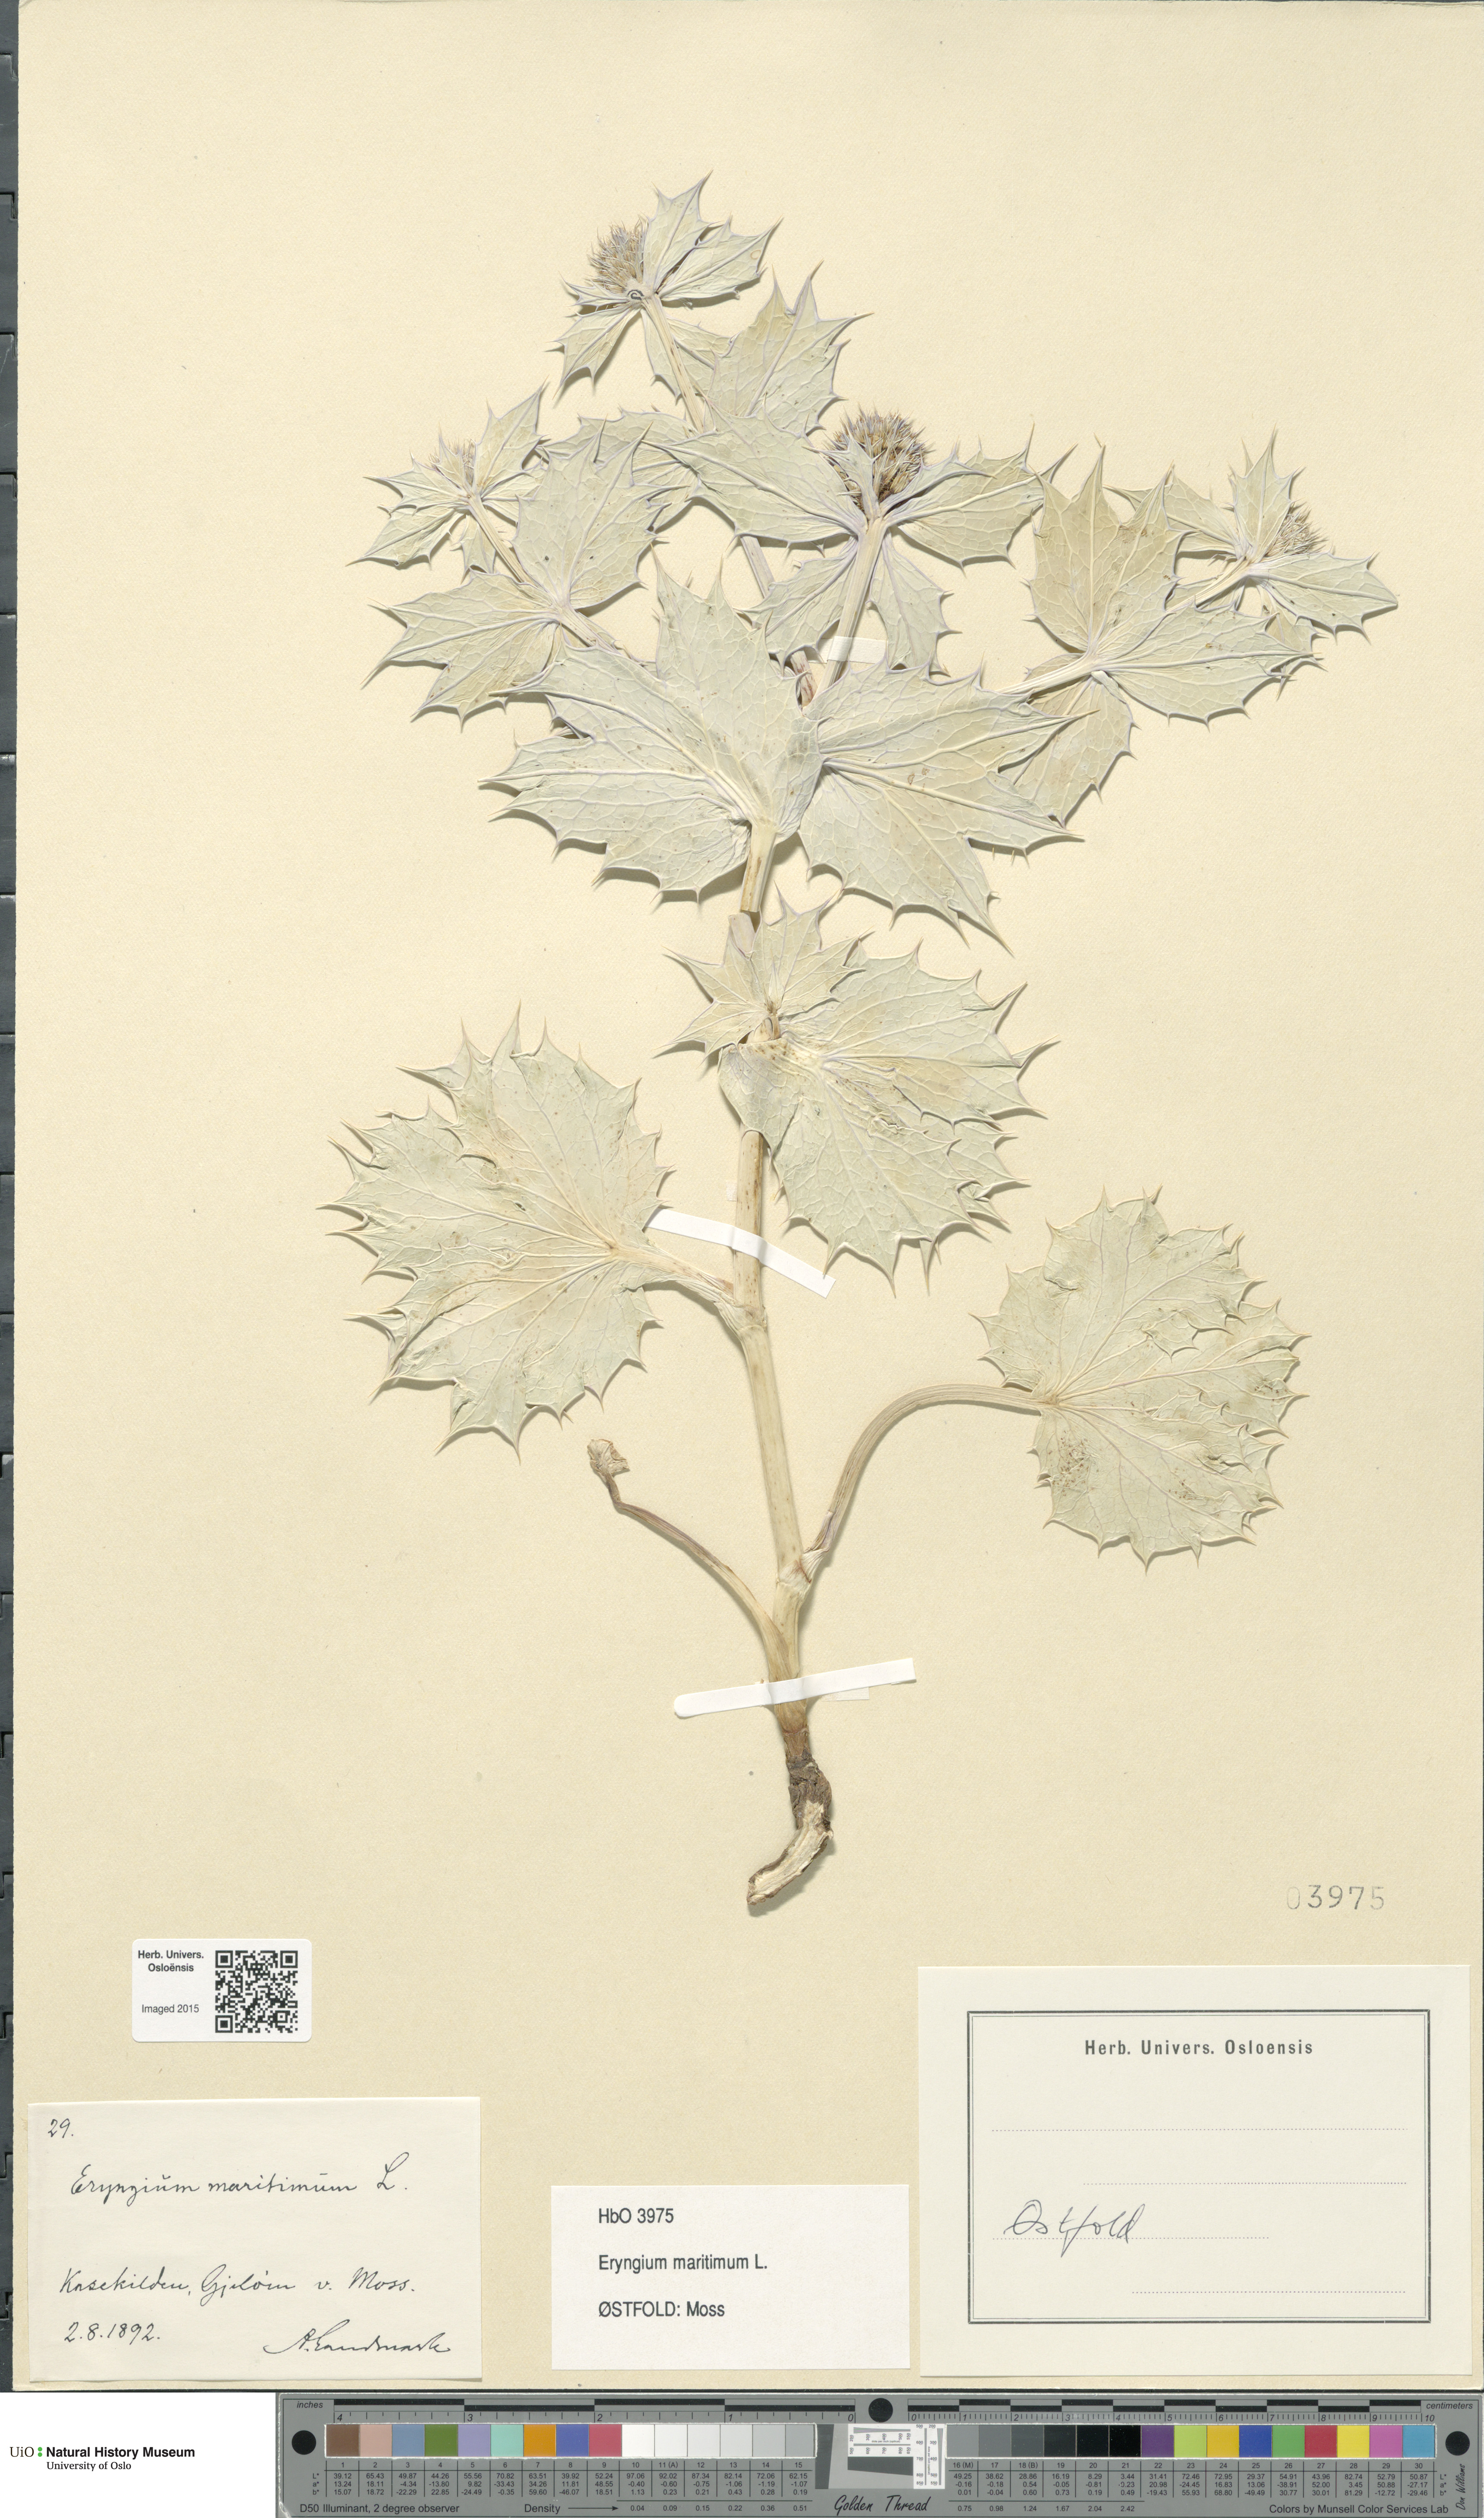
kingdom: Plantae
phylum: Tracheophyta
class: Magnoliopsida
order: Apiales
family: Apiaceae
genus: Eryngium
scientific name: Eryngium maritimum
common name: Sea-holly
